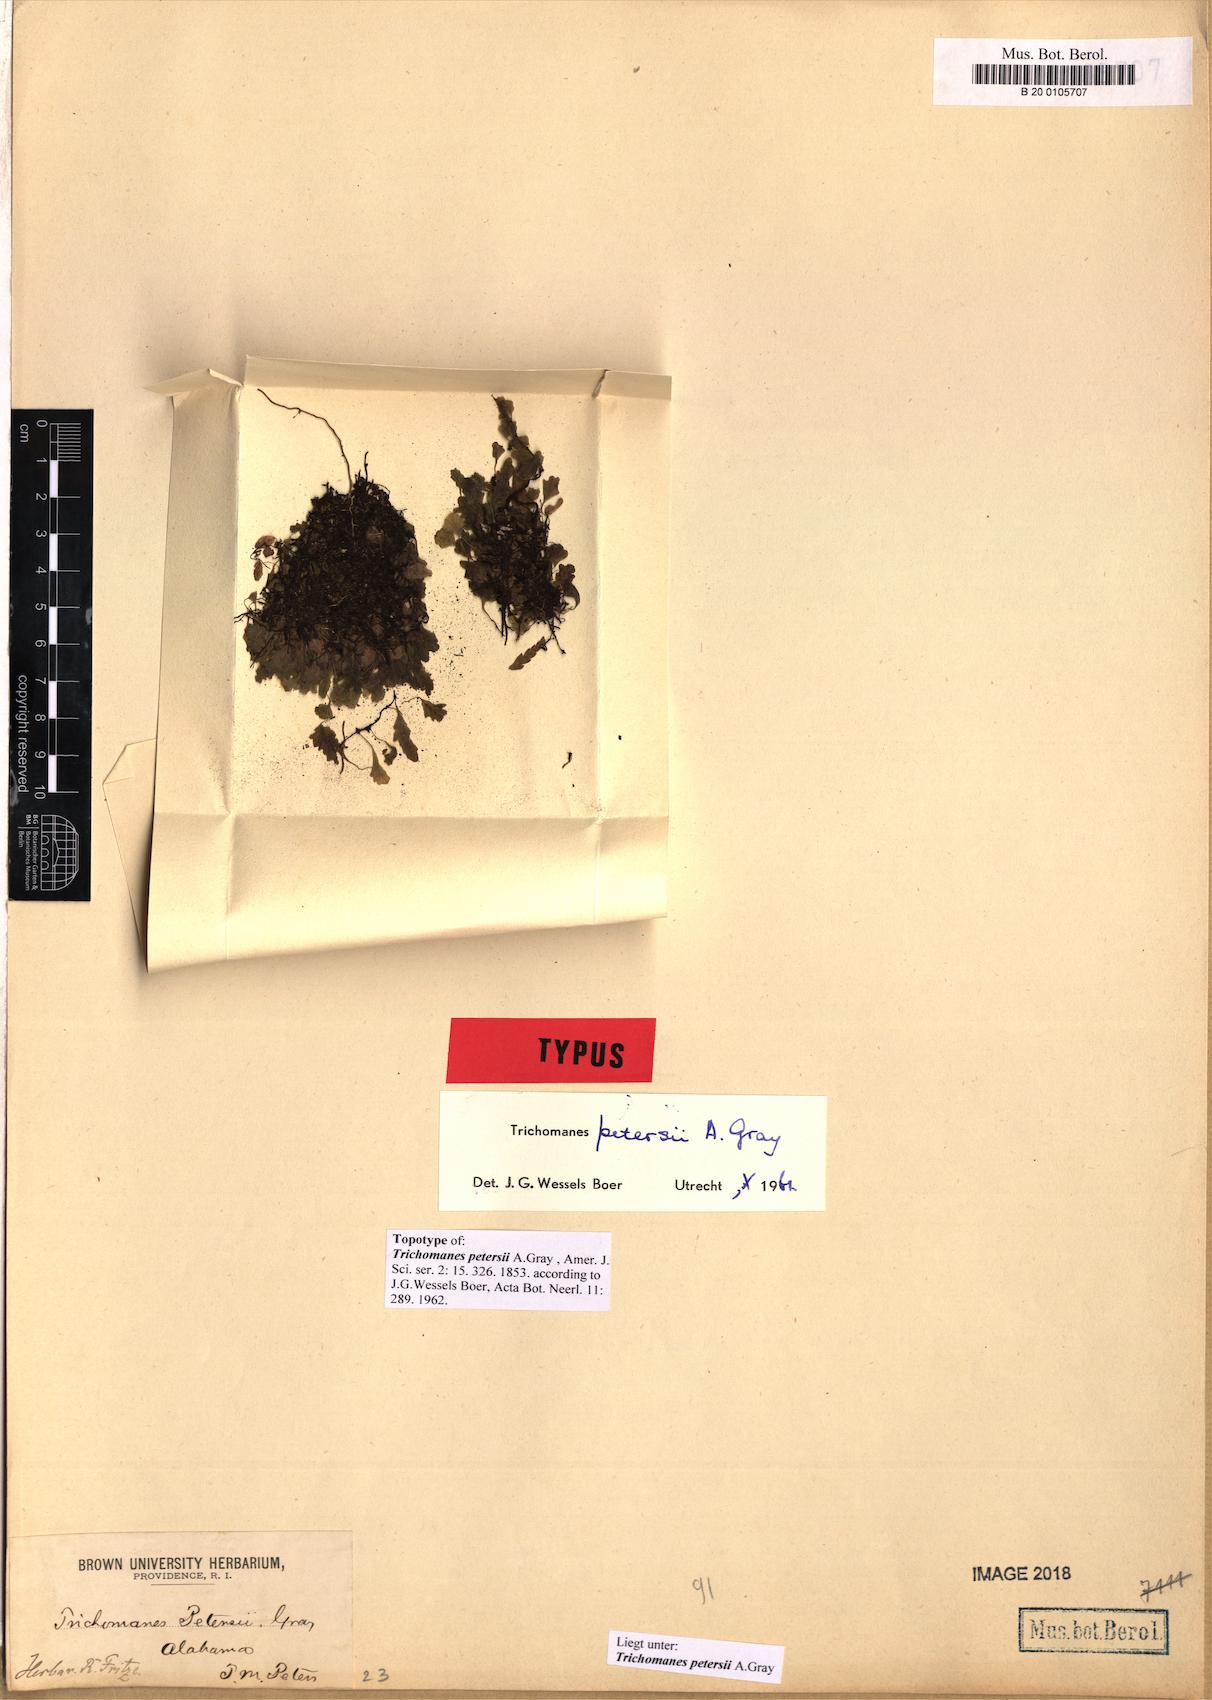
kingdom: Plantae
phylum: Tracheophyta
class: Polypodiopsida
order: Hymenophyllales
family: Hymenophyllaceae
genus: Didymoglossum
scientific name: Didymoglossum petersii
